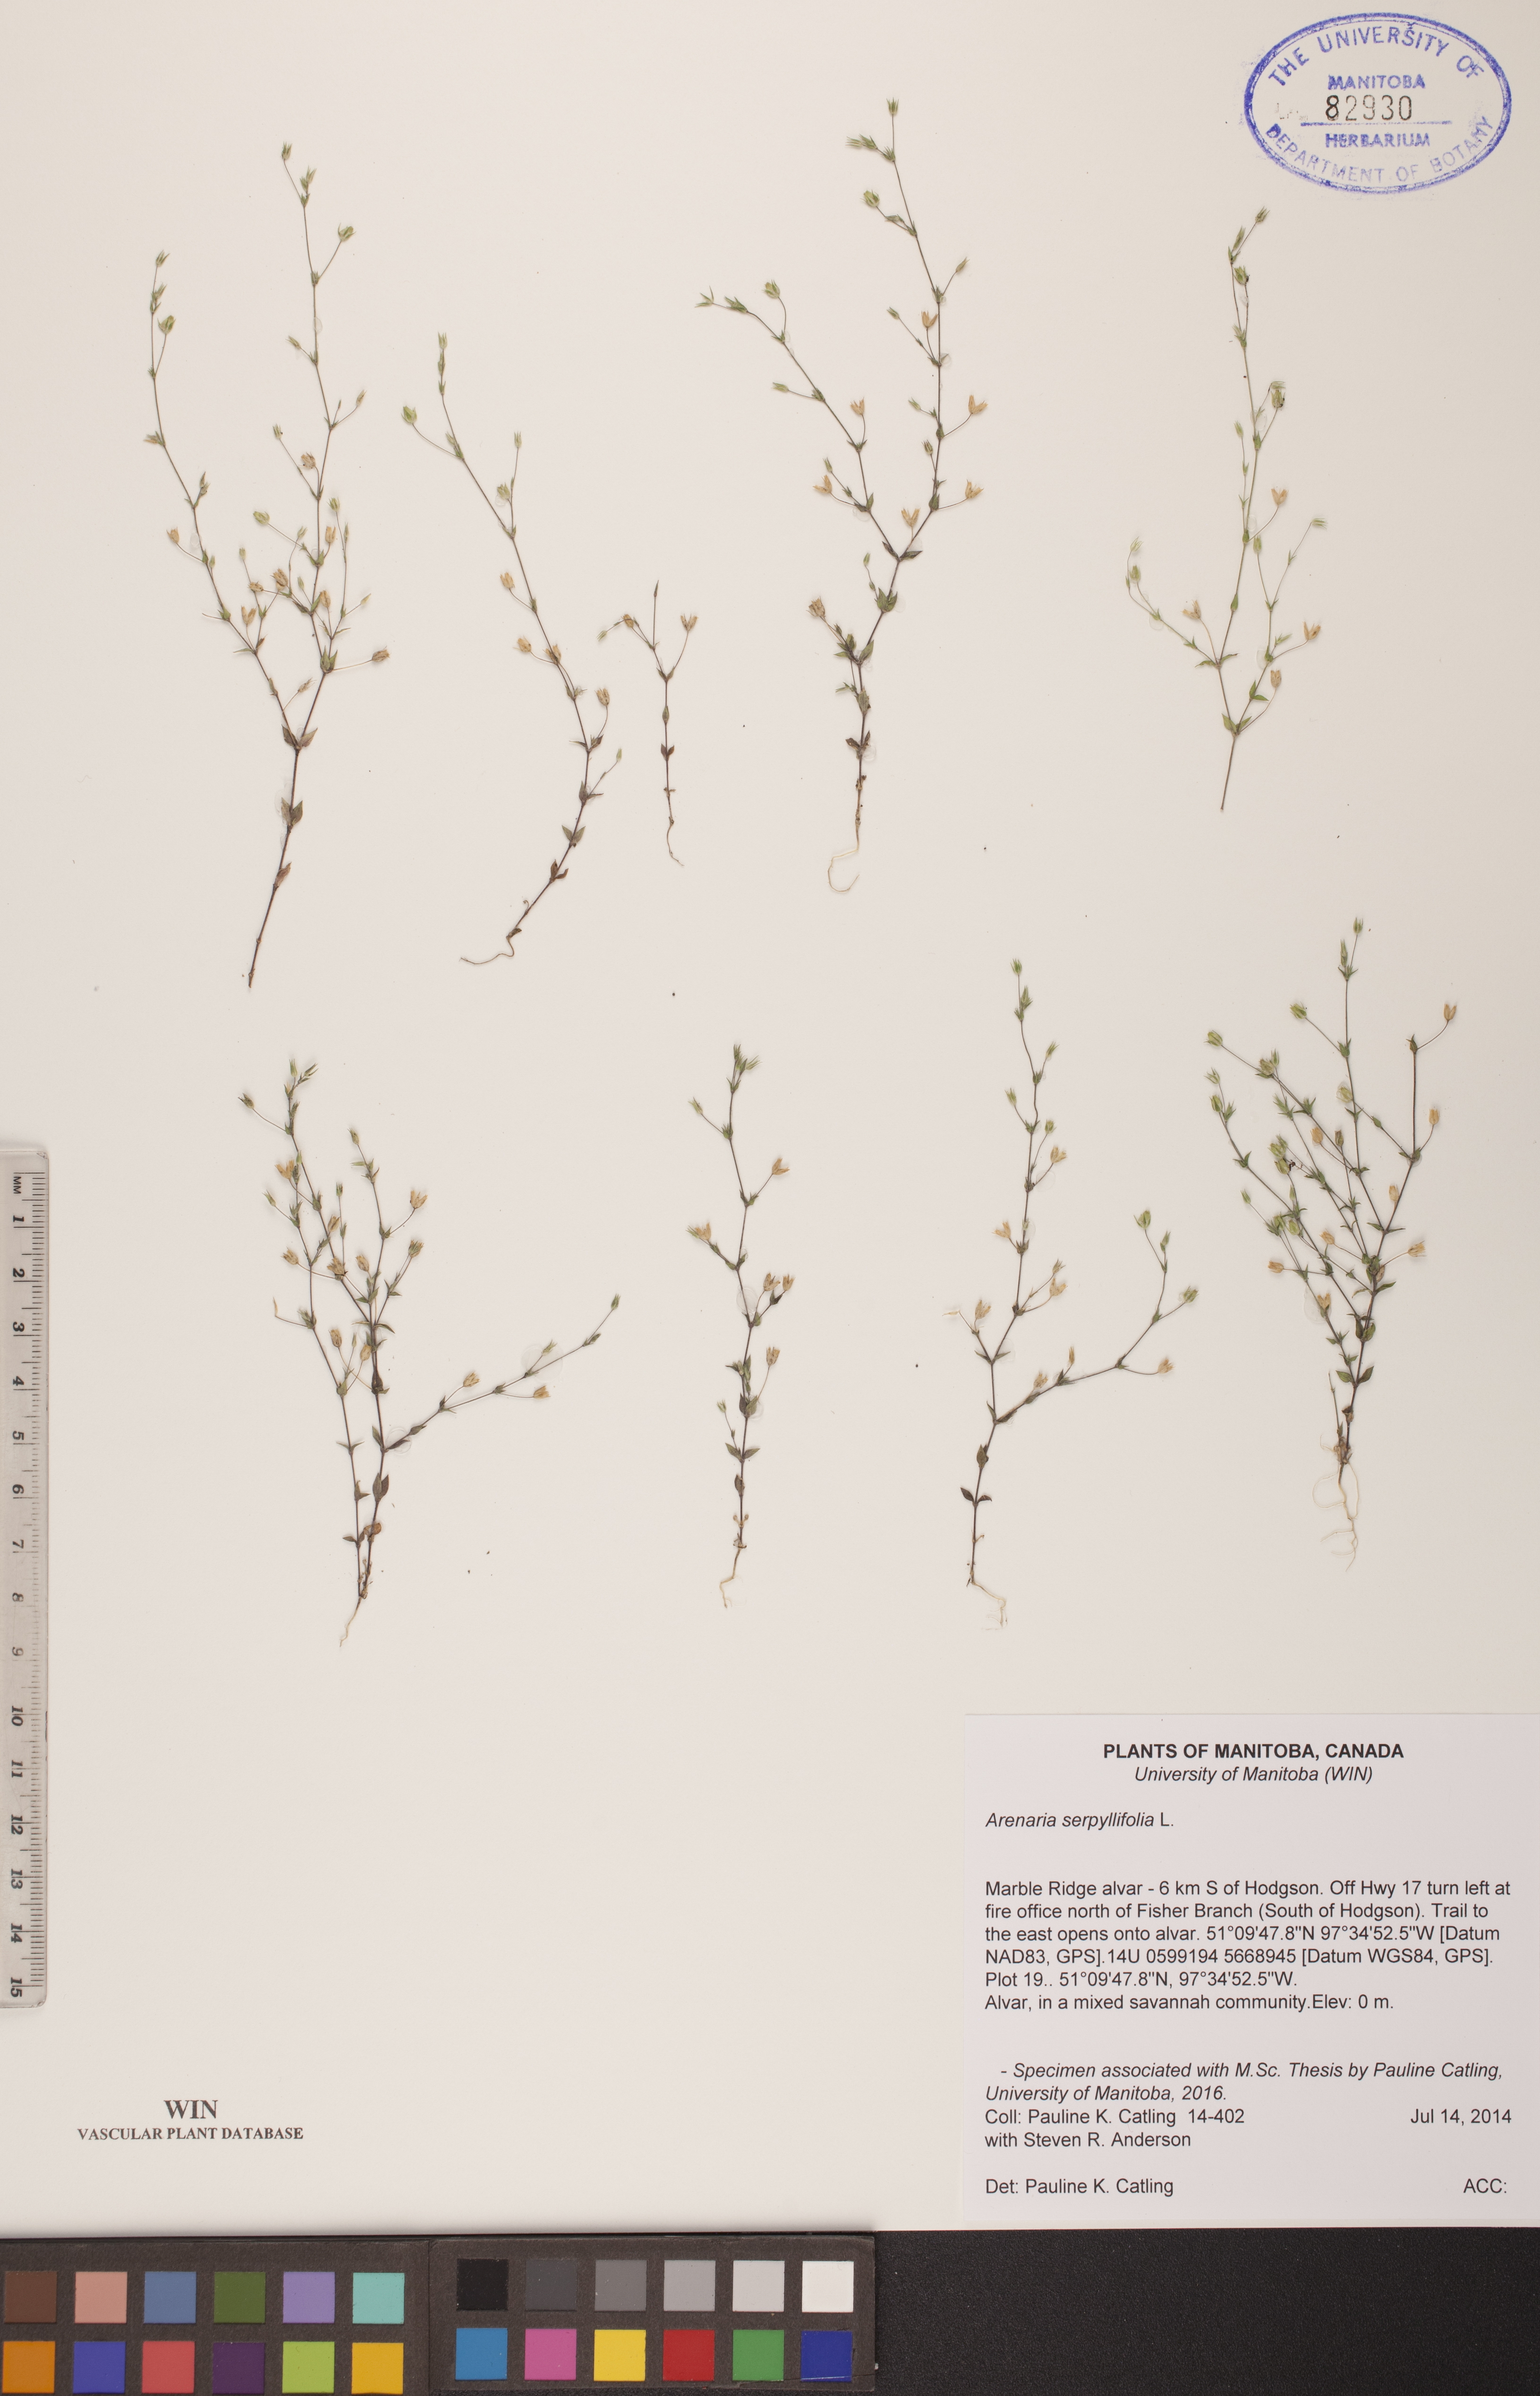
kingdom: Plantae
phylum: Tracheophyta
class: Magnoliopsida
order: Caryophyllales
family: Caryophyllaceae
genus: Arenaria
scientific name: Arenaria serpyllifolia
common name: Thyme-leaved sandwort
